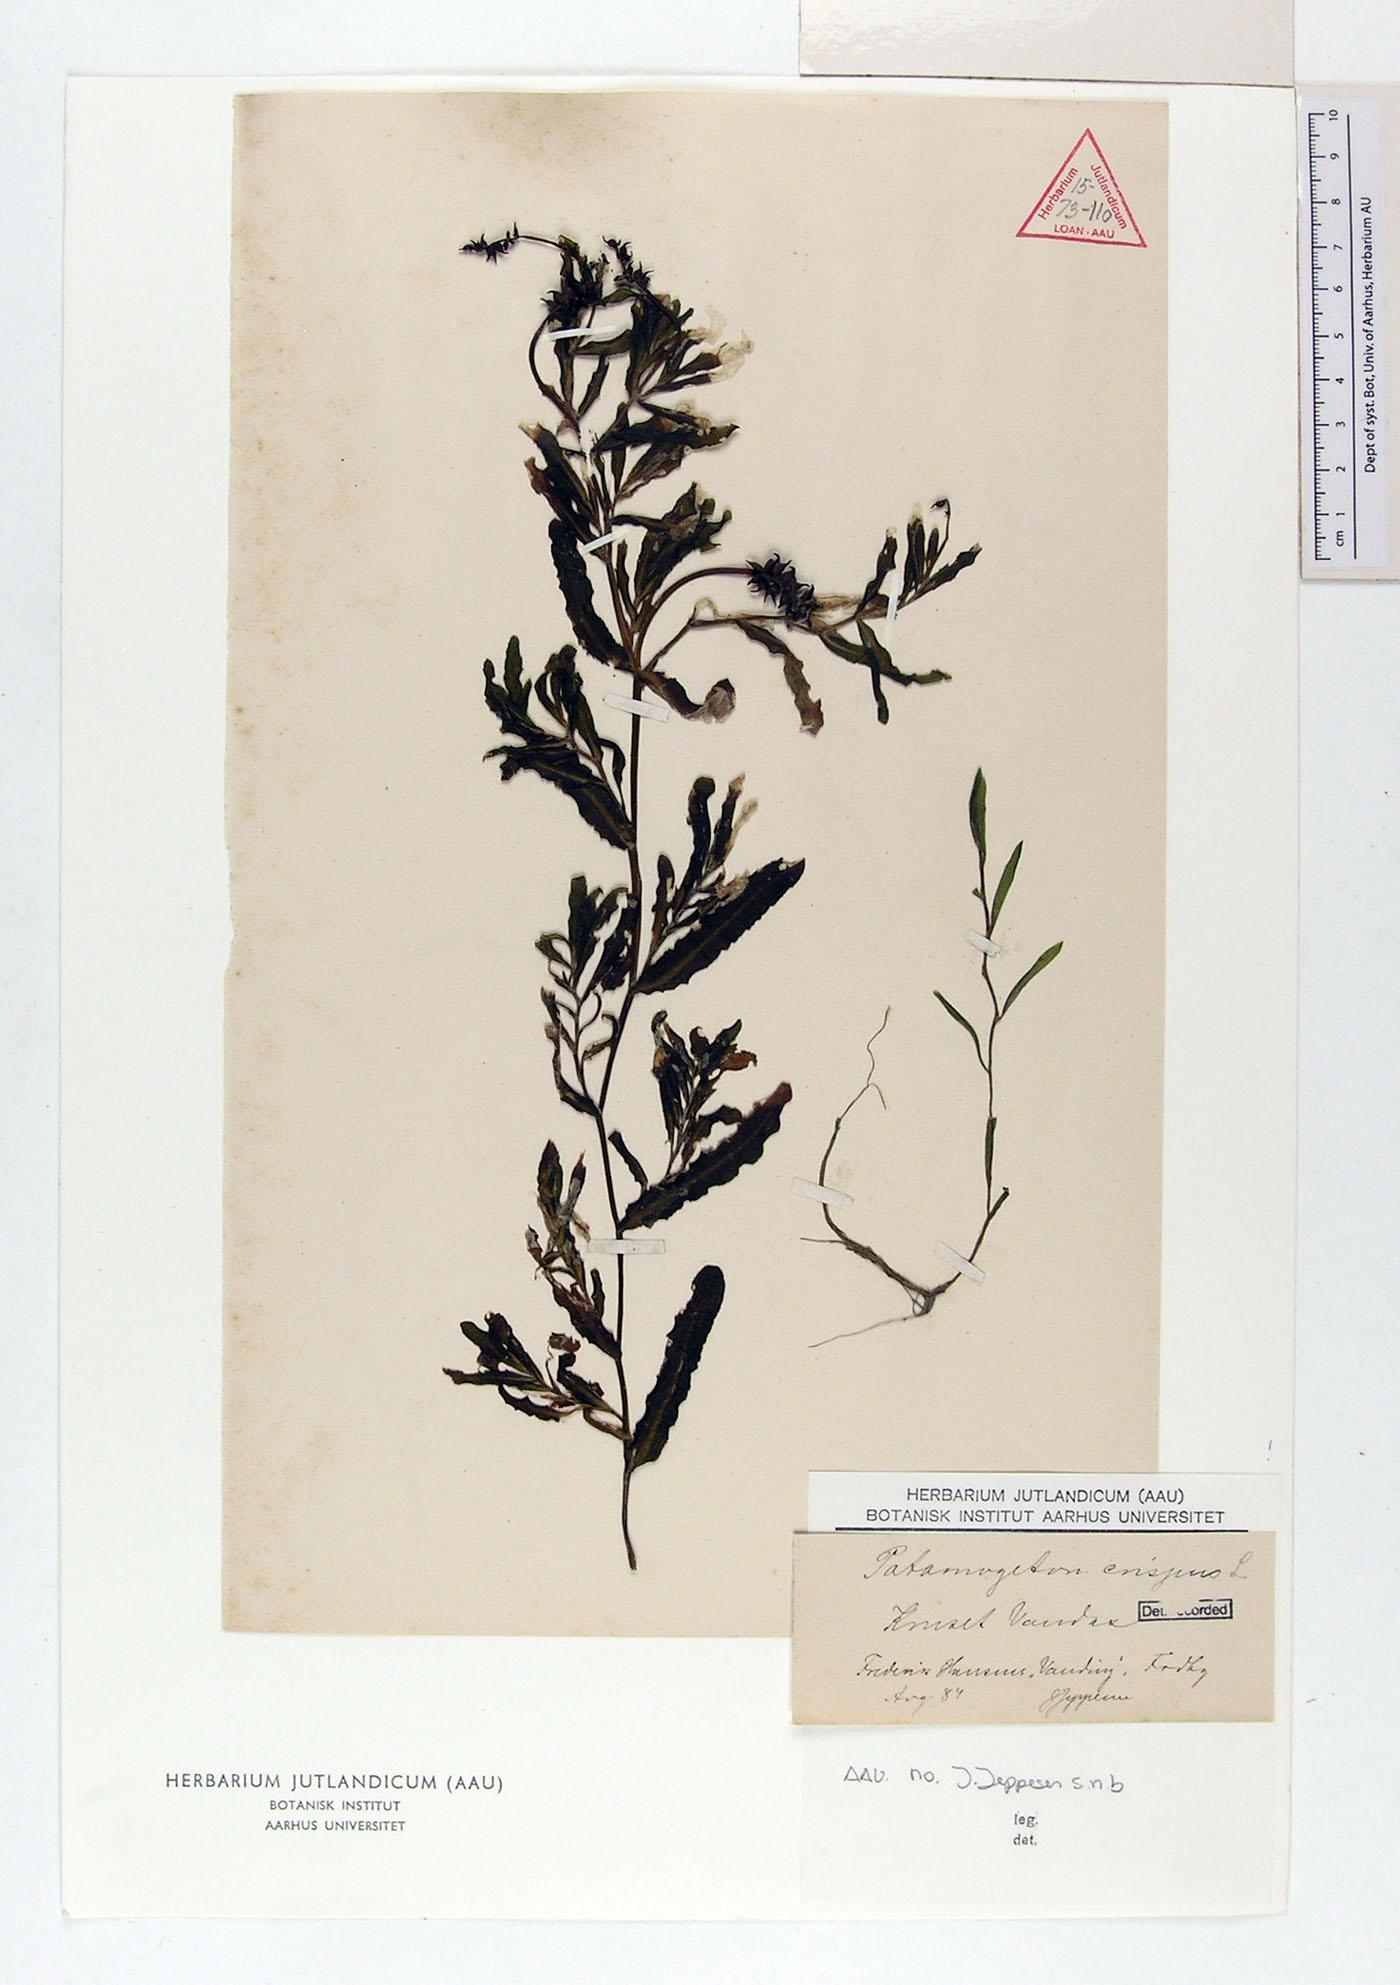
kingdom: Plantae
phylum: Tracheophyta
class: Liliopsida
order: Alismatales
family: Potamogetonaceae
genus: Potamogeton
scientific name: Potamogeton crispus
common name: Curled pondweed
